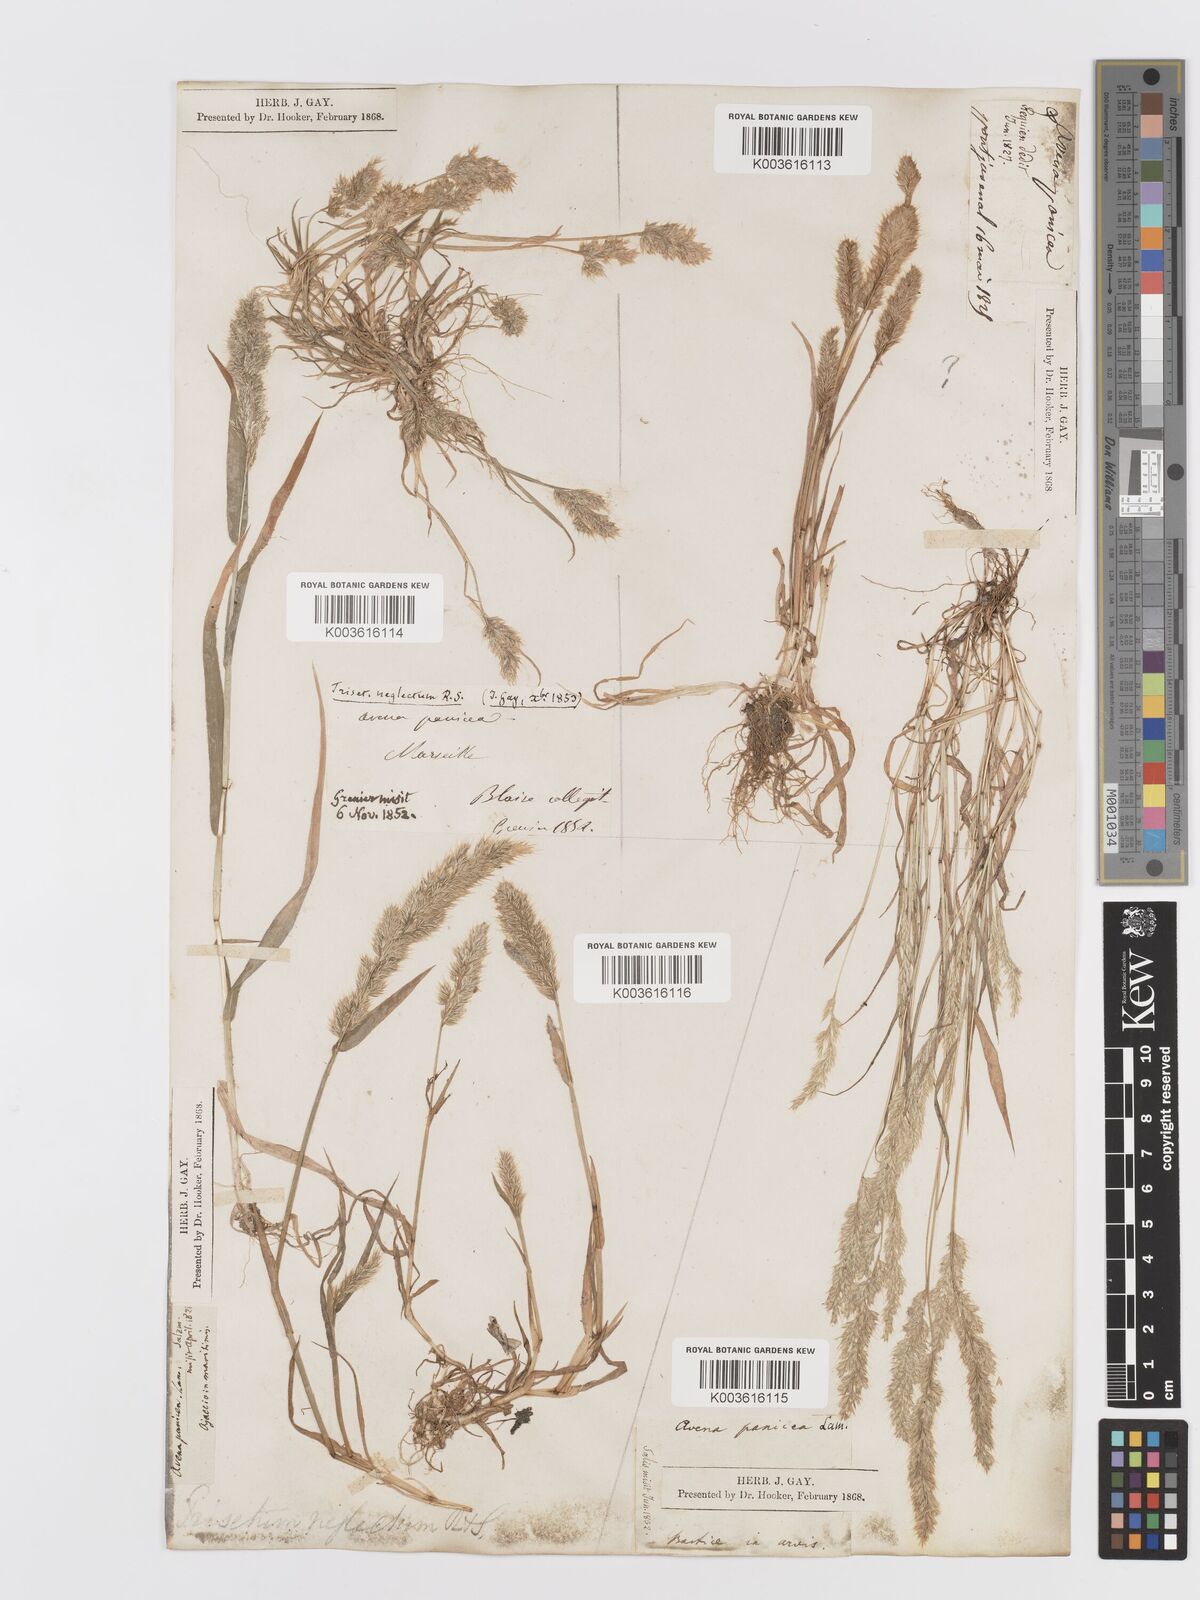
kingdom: Plantae
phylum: Tracheophyta
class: Liliopsida
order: Poales
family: Poaceae
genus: Trisetaria
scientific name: Trisetaria panicea
